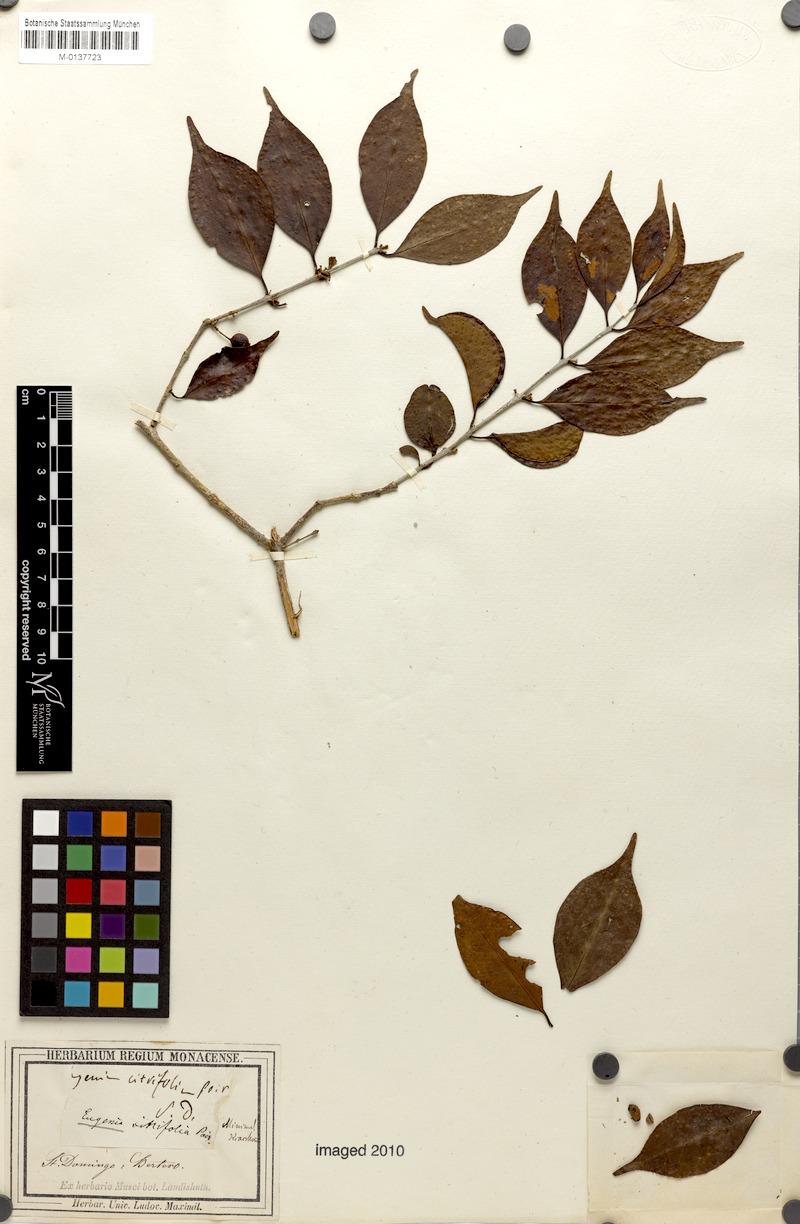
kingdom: Plantae
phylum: Tracheophyta
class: Magnoliopsida
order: Myrtales
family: Myrtaceae
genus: Eugenia
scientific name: Eugenia citrifolia
